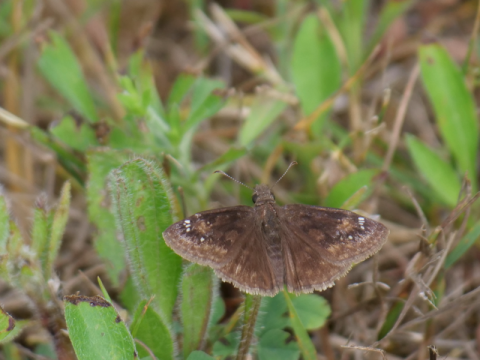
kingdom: Animalia
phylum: Arthropoda
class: Insecta
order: Lepidoptera
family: Hesperiidae
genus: Gesta
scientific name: Gesta
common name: Wild Indigo Duskywing
